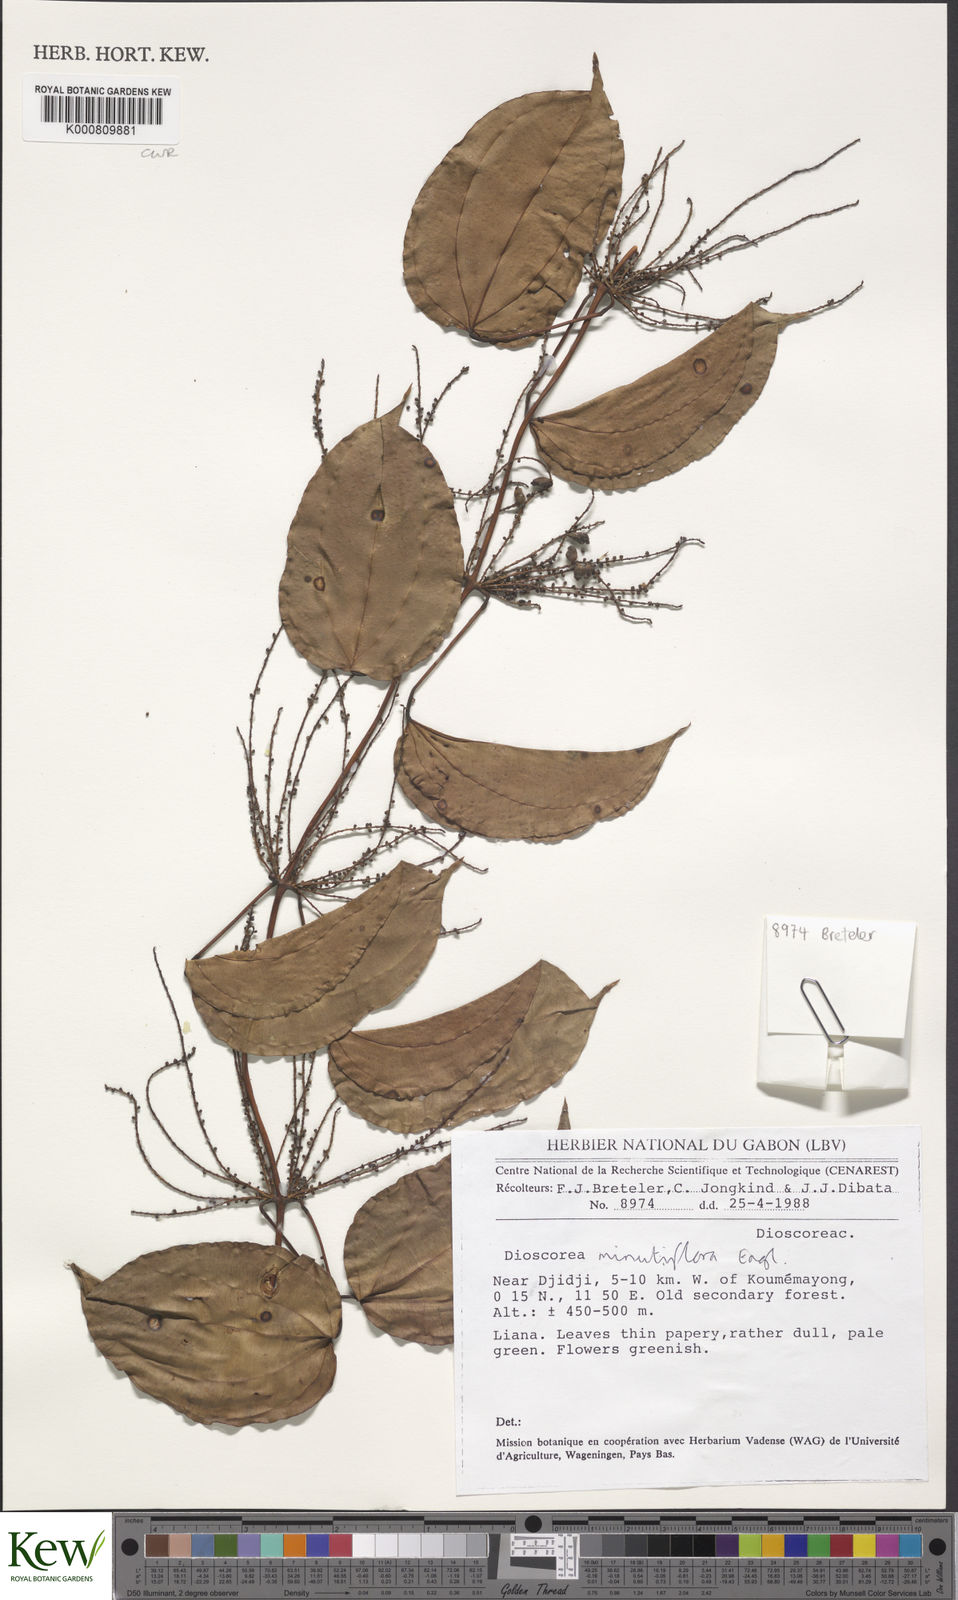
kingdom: Plantae
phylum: Tracheophyta
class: Liliopsida
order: Dioscoreales
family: Dioscoreaceae
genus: Dioscorea
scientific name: Dioscorea minutiflora
